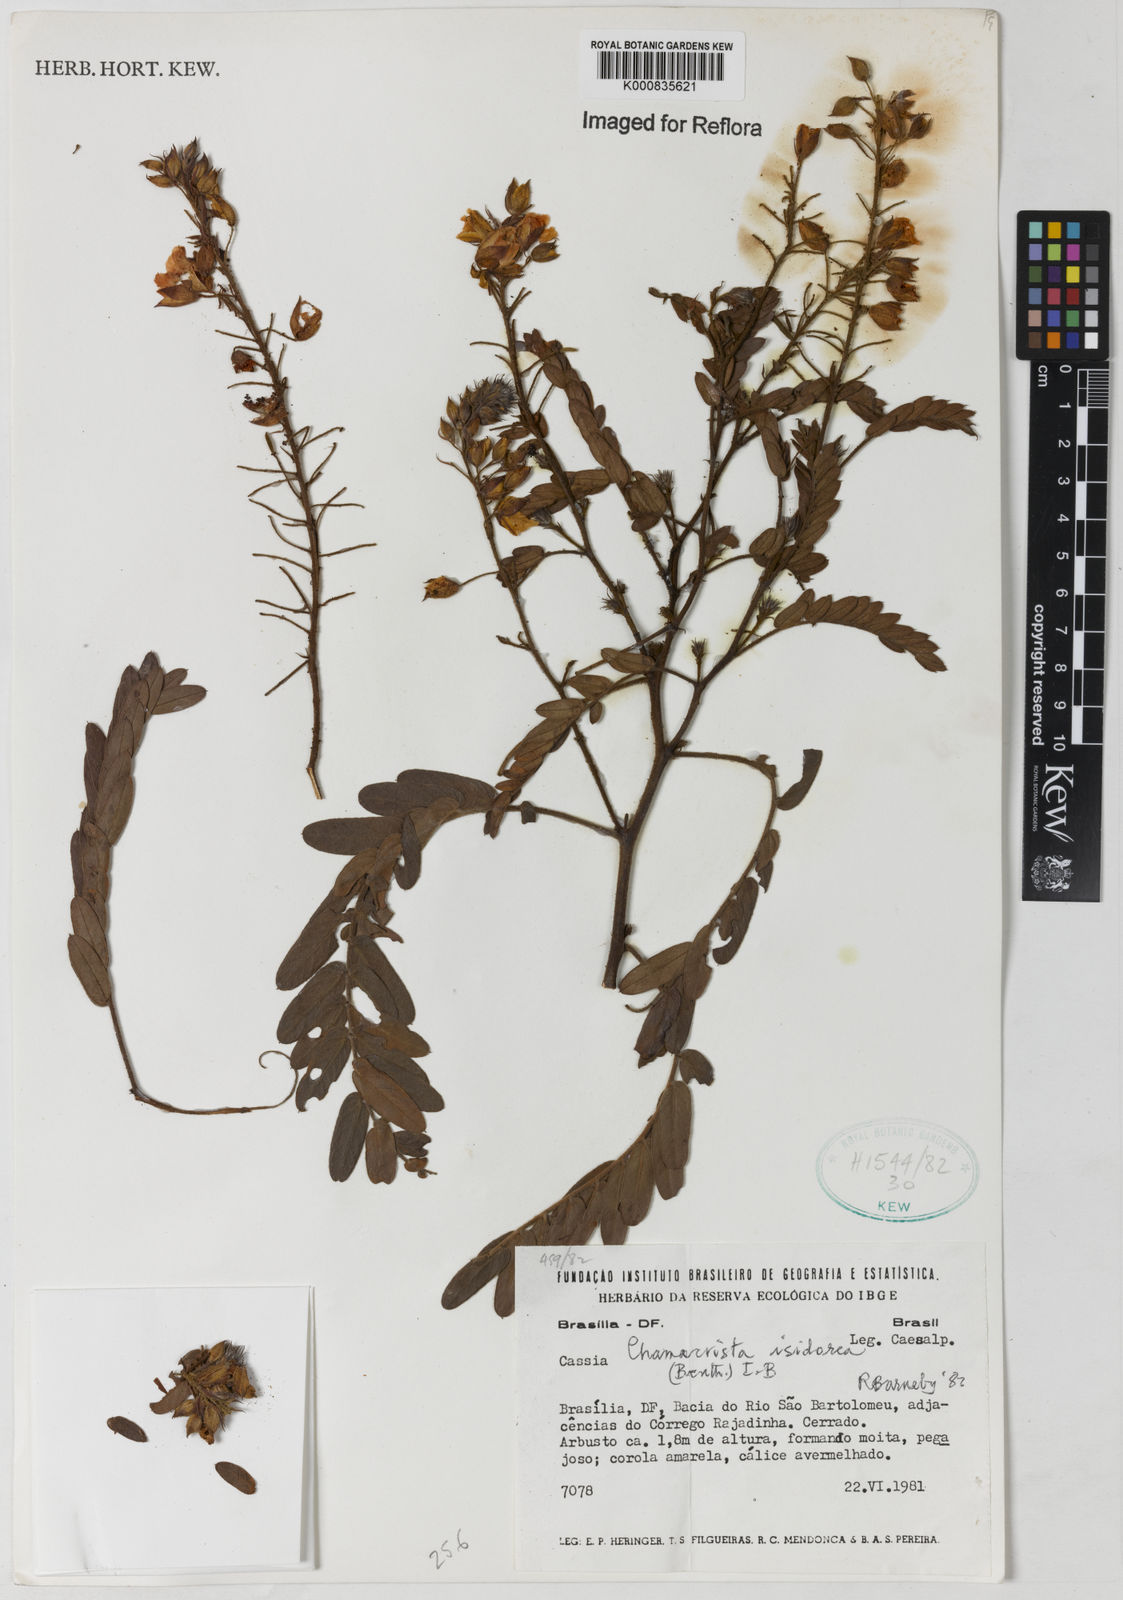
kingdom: Plantae
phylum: Tracheophyta
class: Magnoliopsida
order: Fabales
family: Fabaceae
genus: Chamaecrista
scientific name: Chamaecrista isidorea
